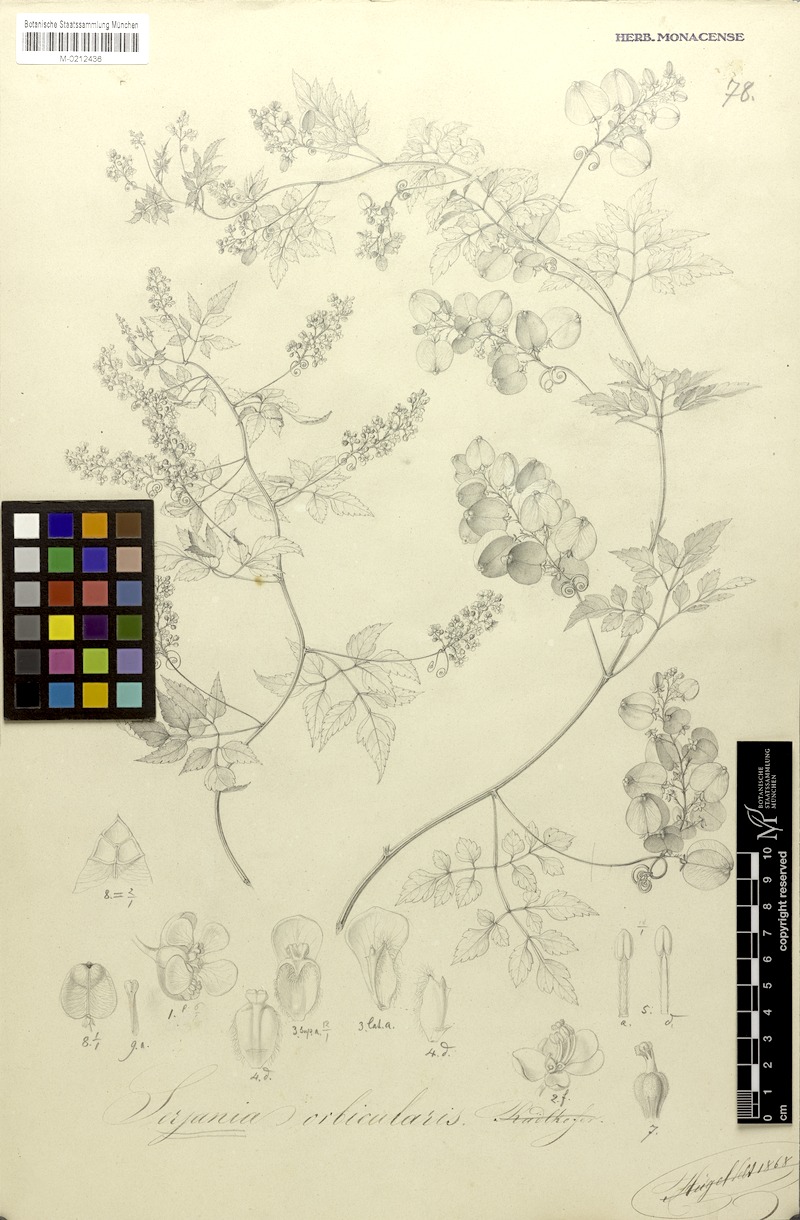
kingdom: Plantae
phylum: Tracheophyta
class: Magnoliopsida
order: Sapindales
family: Sapindaceae
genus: Serjania
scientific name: Serjania orbicularis
